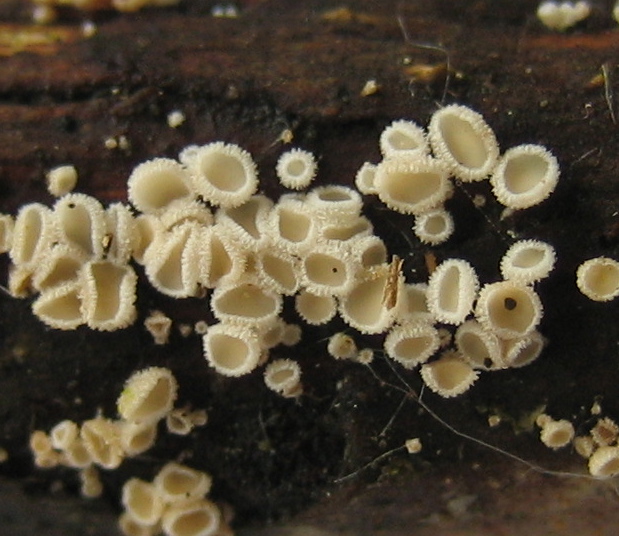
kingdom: Fungi
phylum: Ascomycota
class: Leotiomycetes
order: Helotiales
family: Lachnaceae
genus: Lachnum
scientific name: Lachnum
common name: frynseskive
